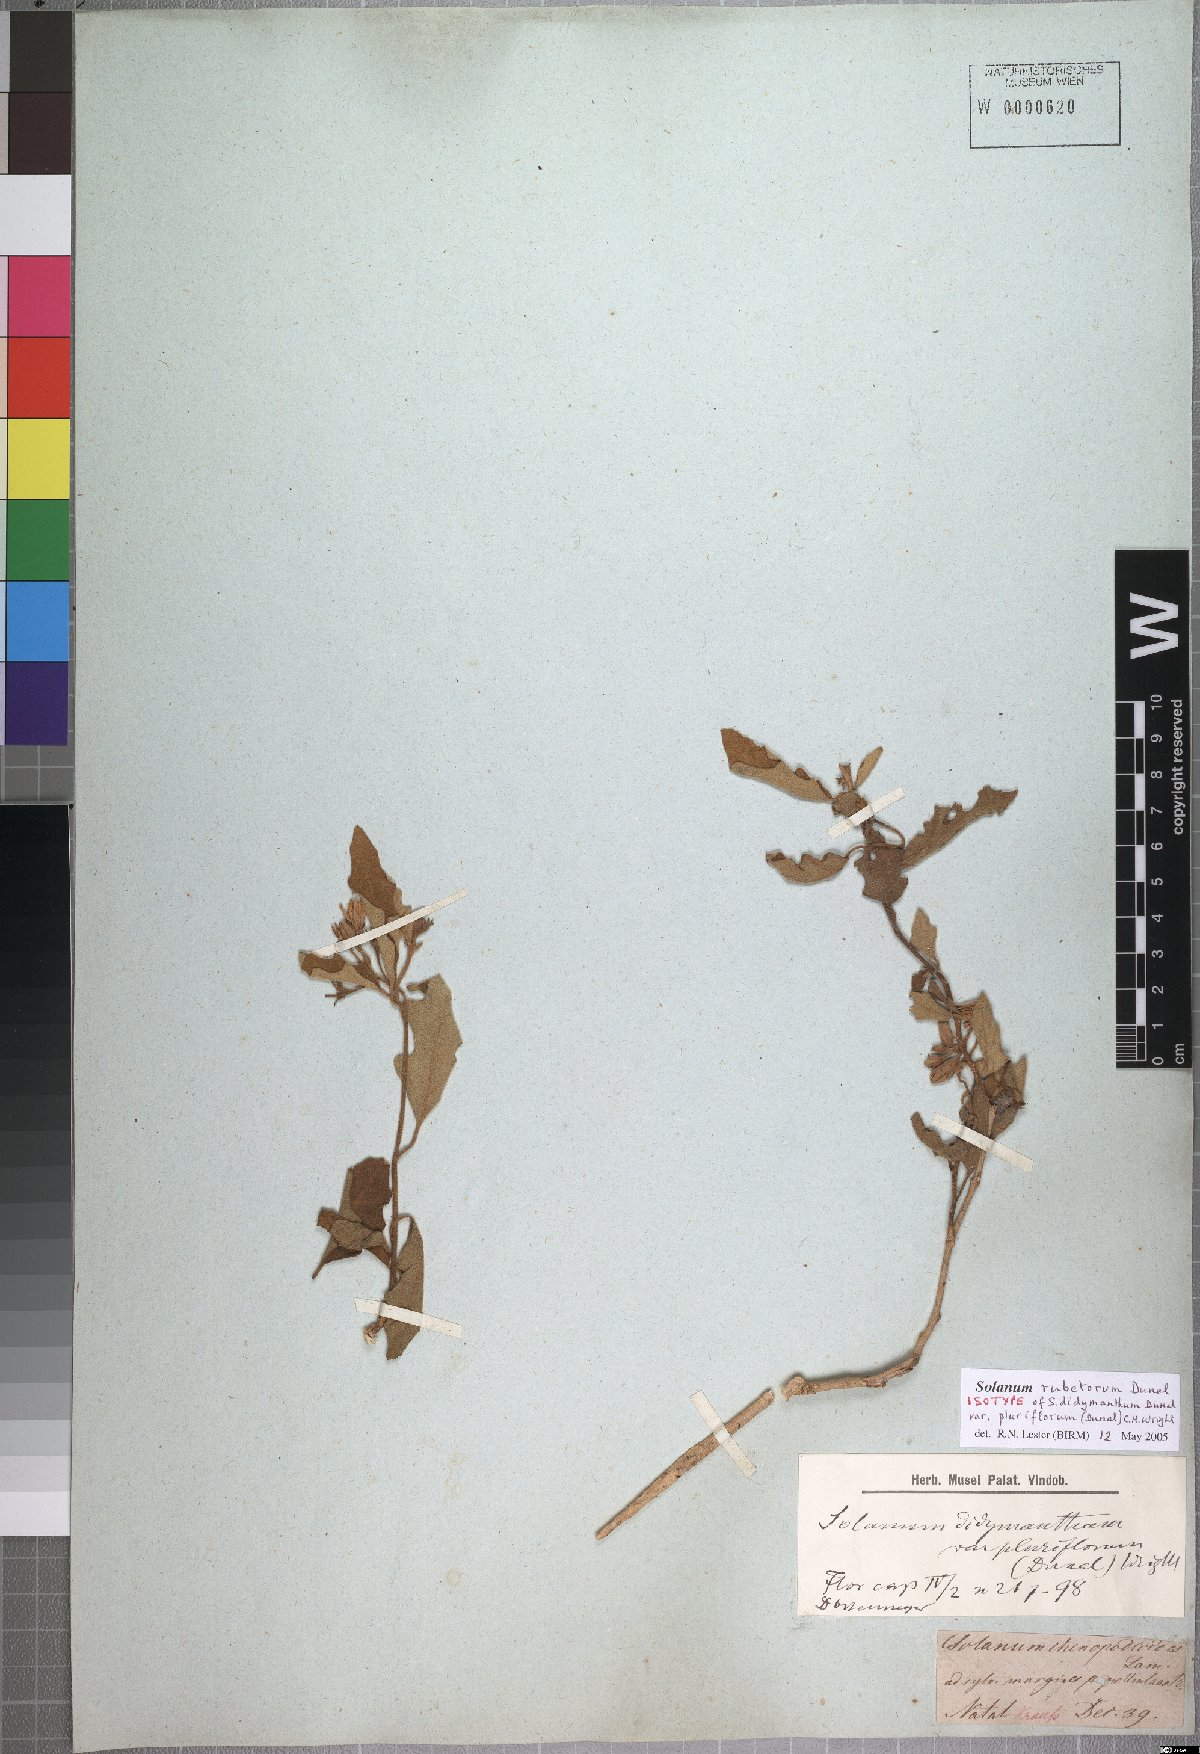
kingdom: Plantae
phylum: Tracheophyta
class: Magnoliopsida
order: Solanales
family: Solanaceae
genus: Solanum
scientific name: Solanum rubetorum
